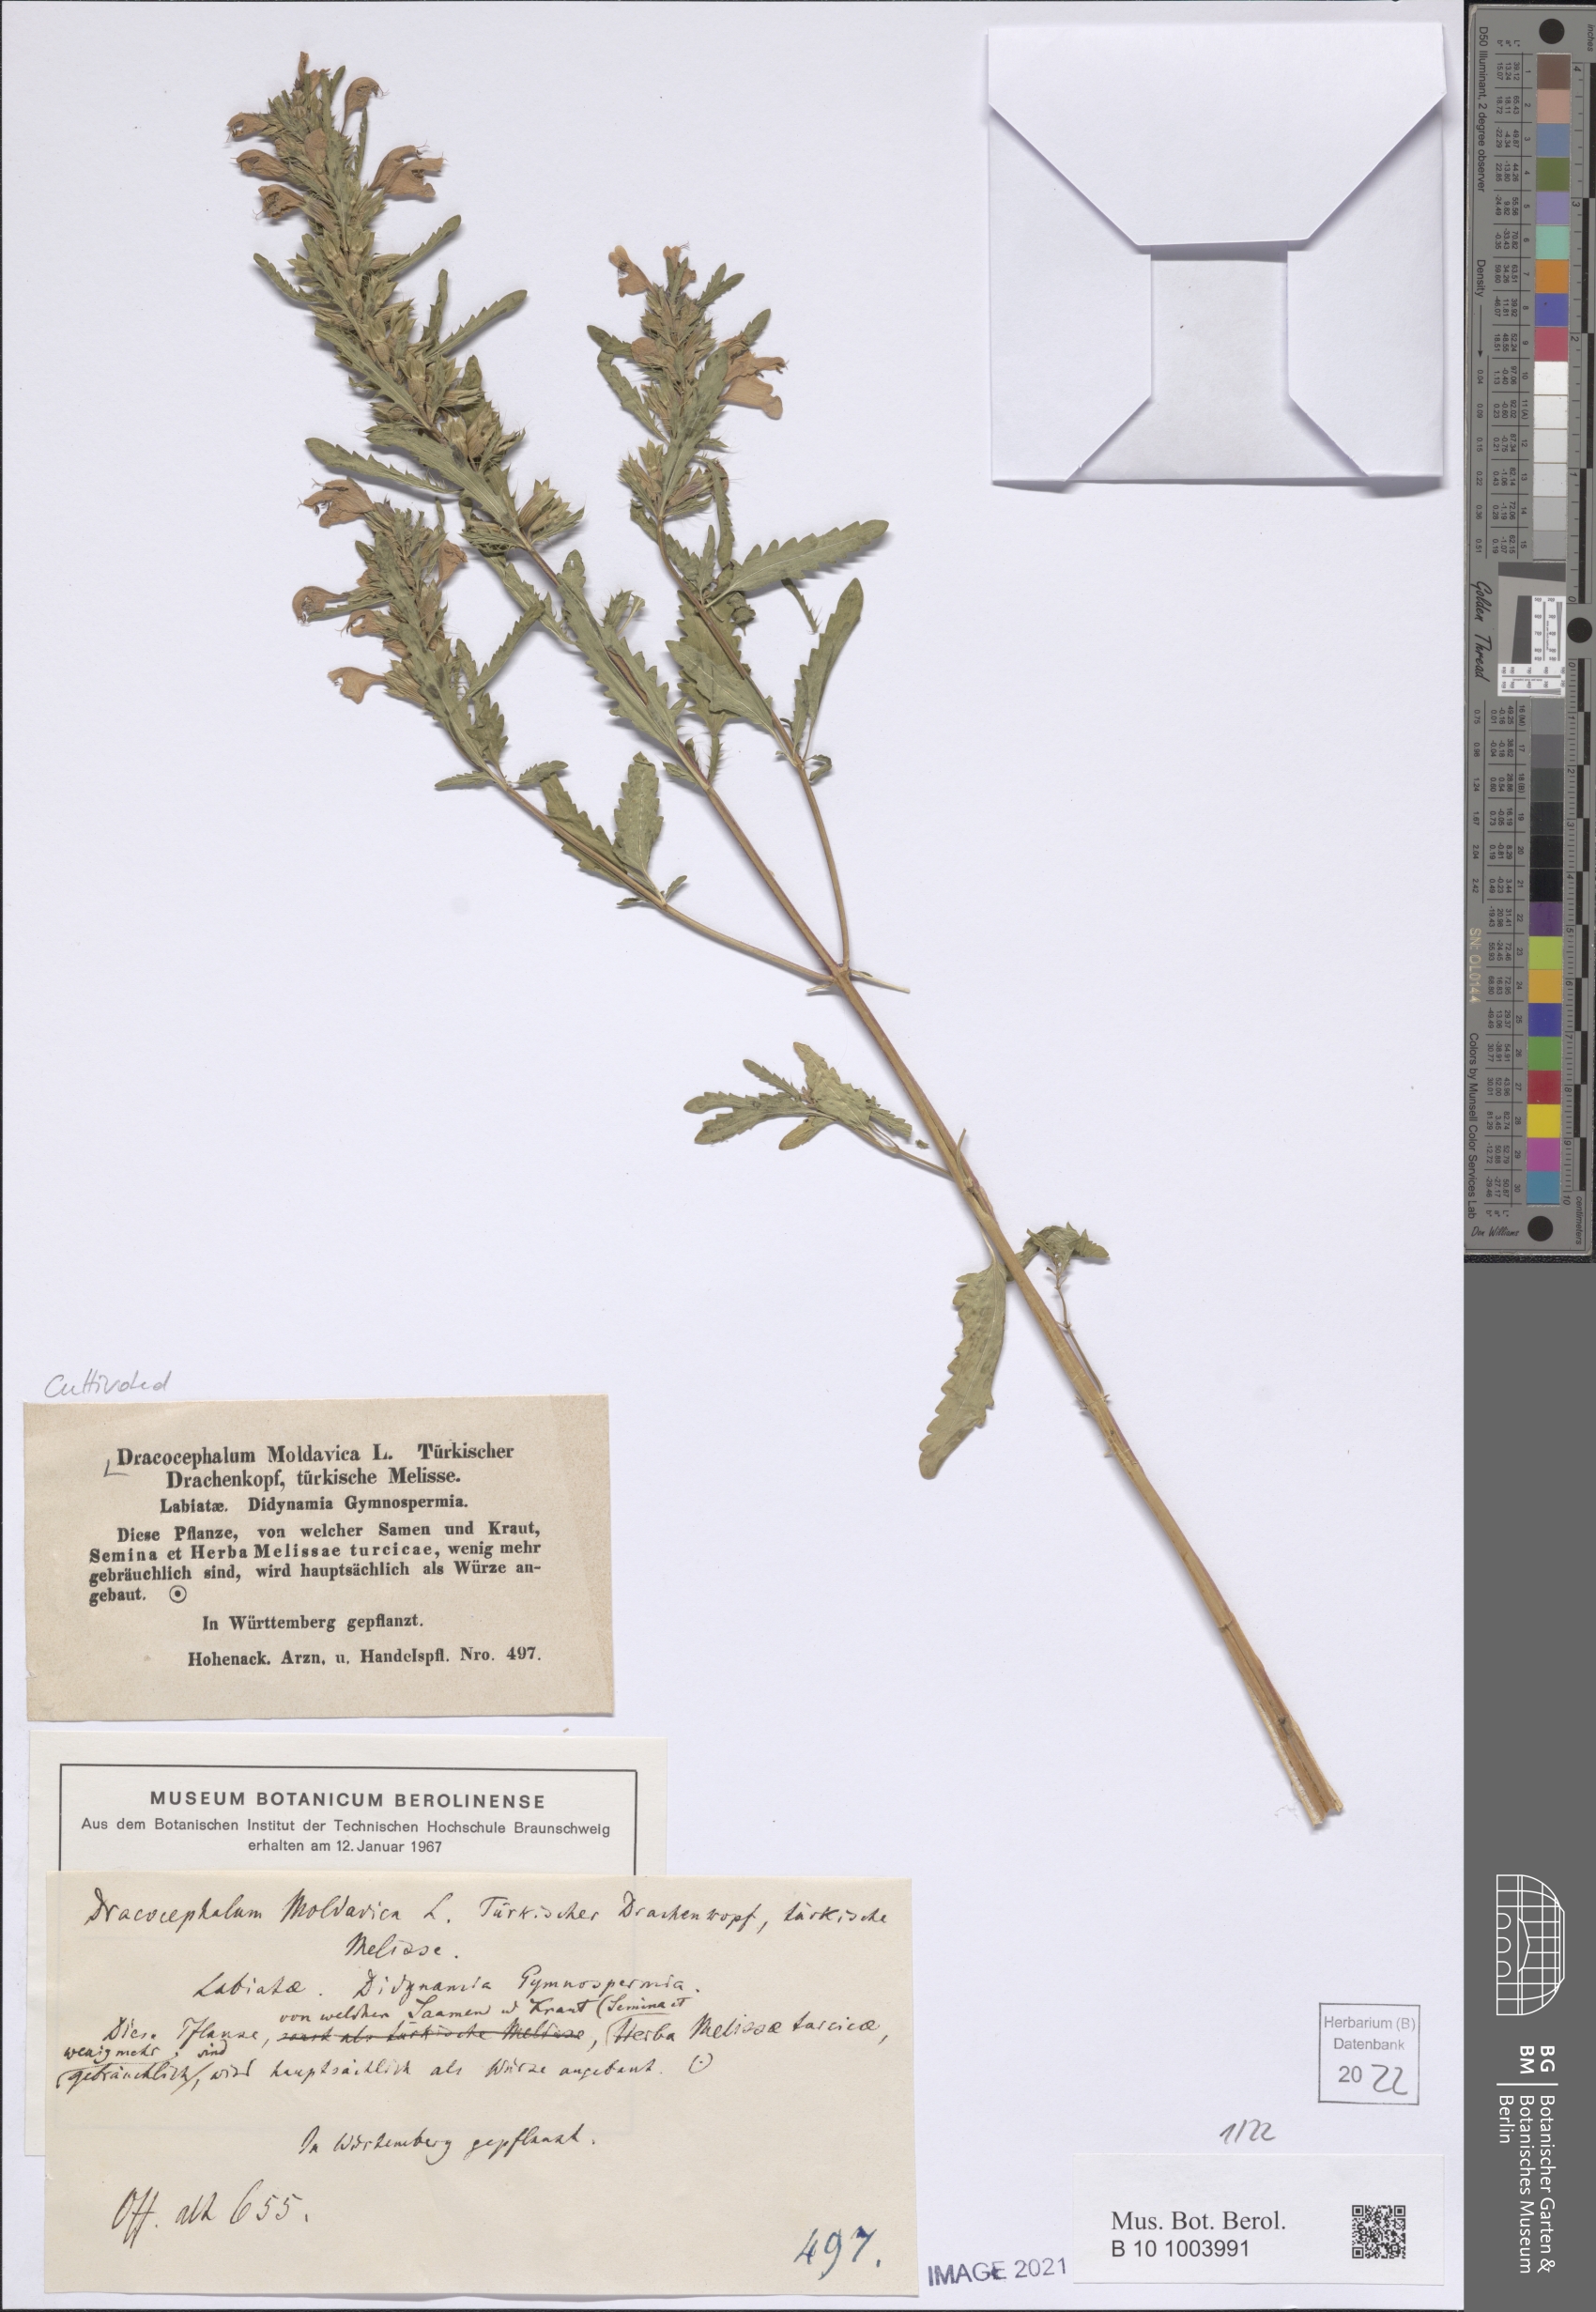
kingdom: Plantae
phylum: Tracheophyta
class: Magnoliopsida
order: Lamiales
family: Lamiaceae
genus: Dracocephalum
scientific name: Dracocephalum moldavica
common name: Moldavian dragonhead
